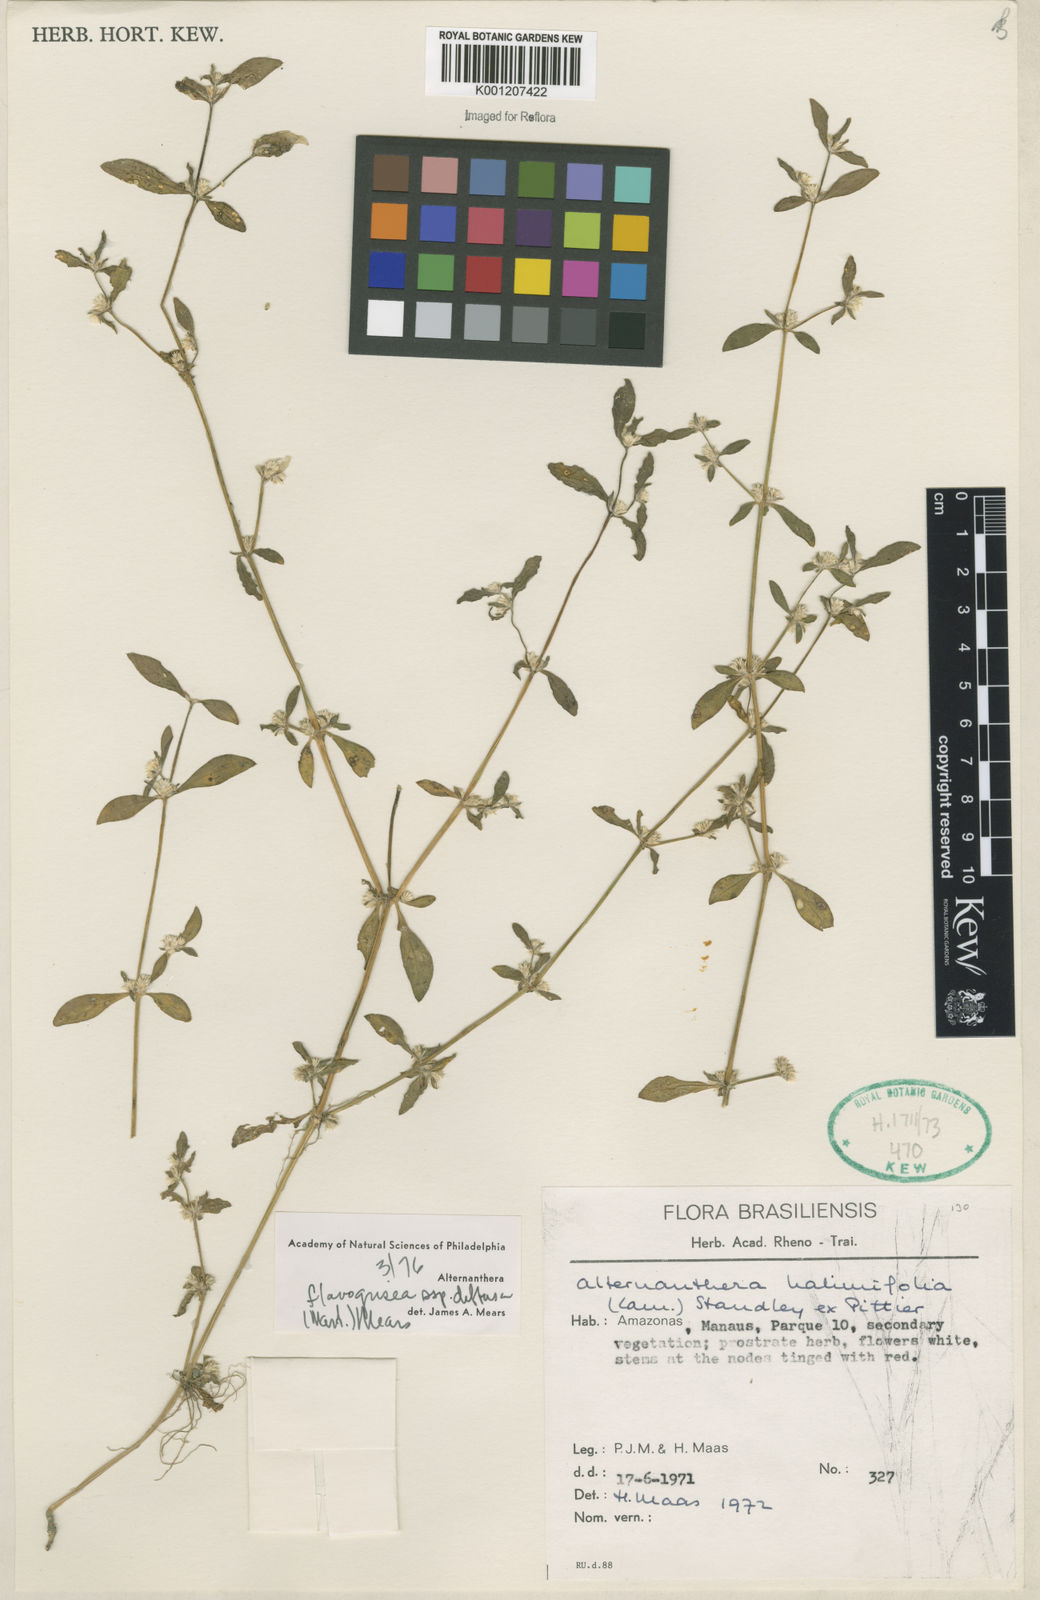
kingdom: Plantae
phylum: Tracheophyta
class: Magnoliopsida
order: Caryophyllales
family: Amaranthaceae
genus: Alternanthera
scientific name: Alternanthera halimifolia
